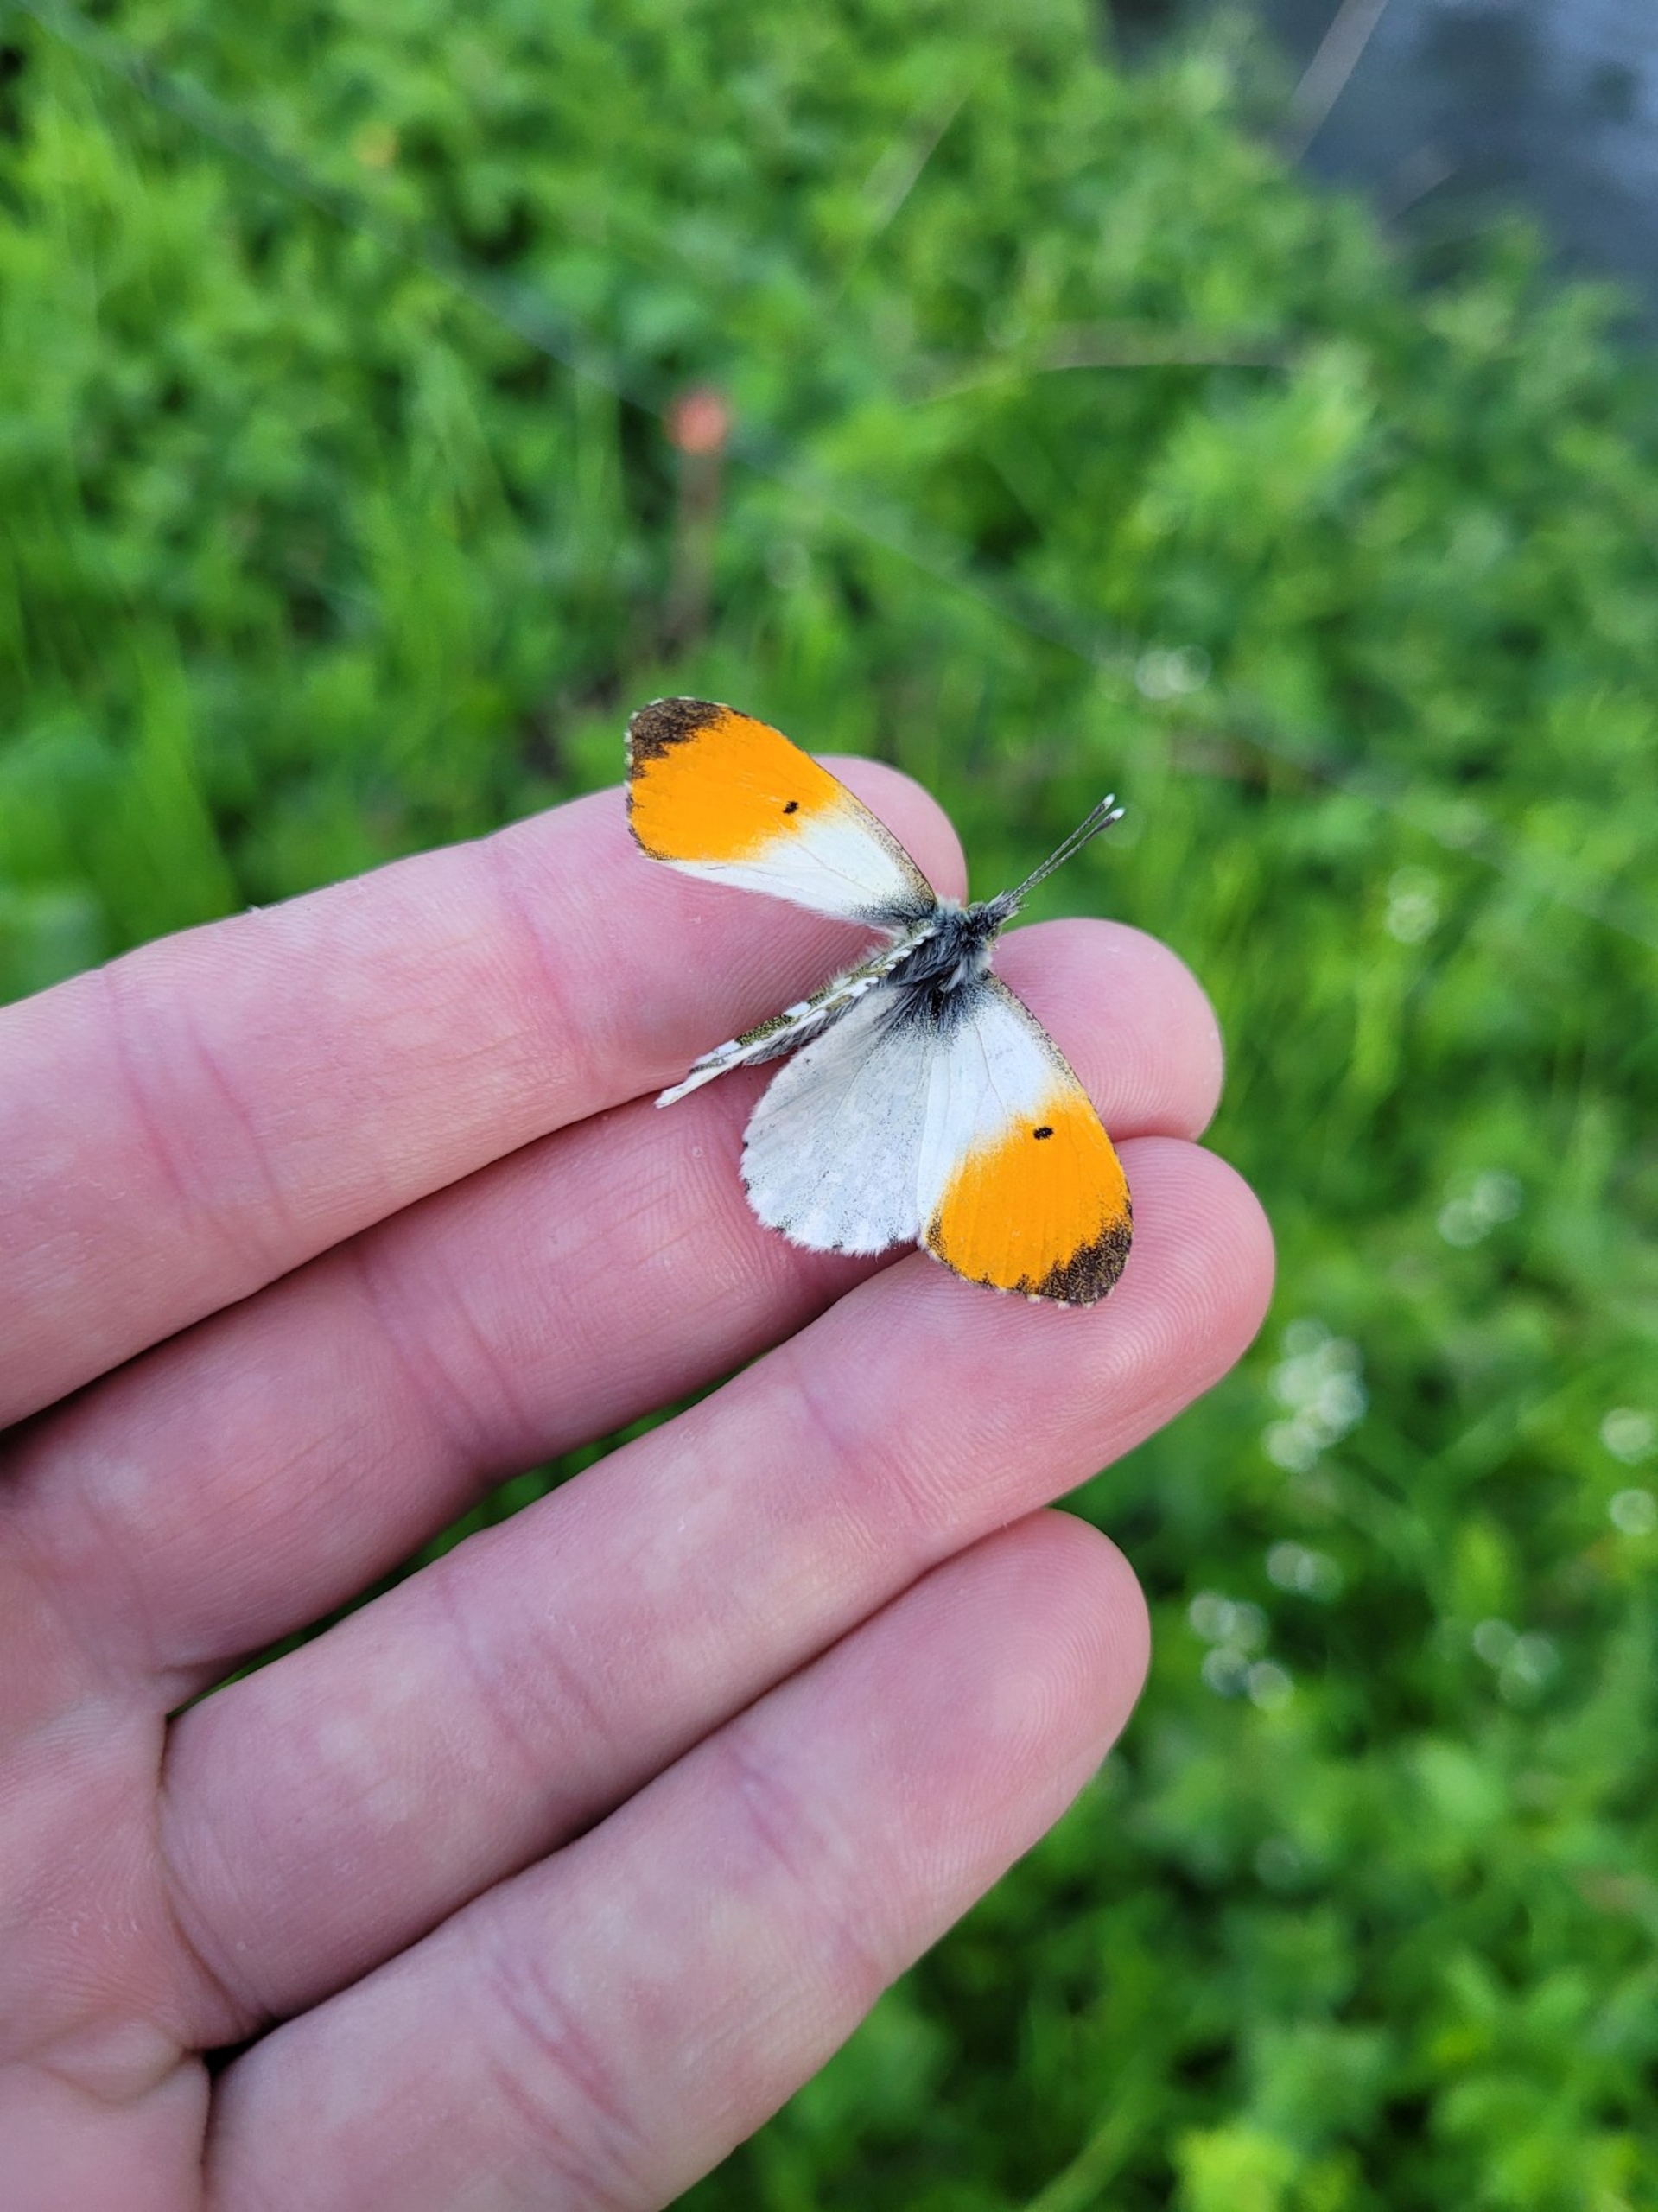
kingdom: Animalia
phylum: Arthropoda
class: Insecta
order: Lepidoptera
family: Pieridae
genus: Anthocharis
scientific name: Anthocharis cardamines
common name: Aurora
